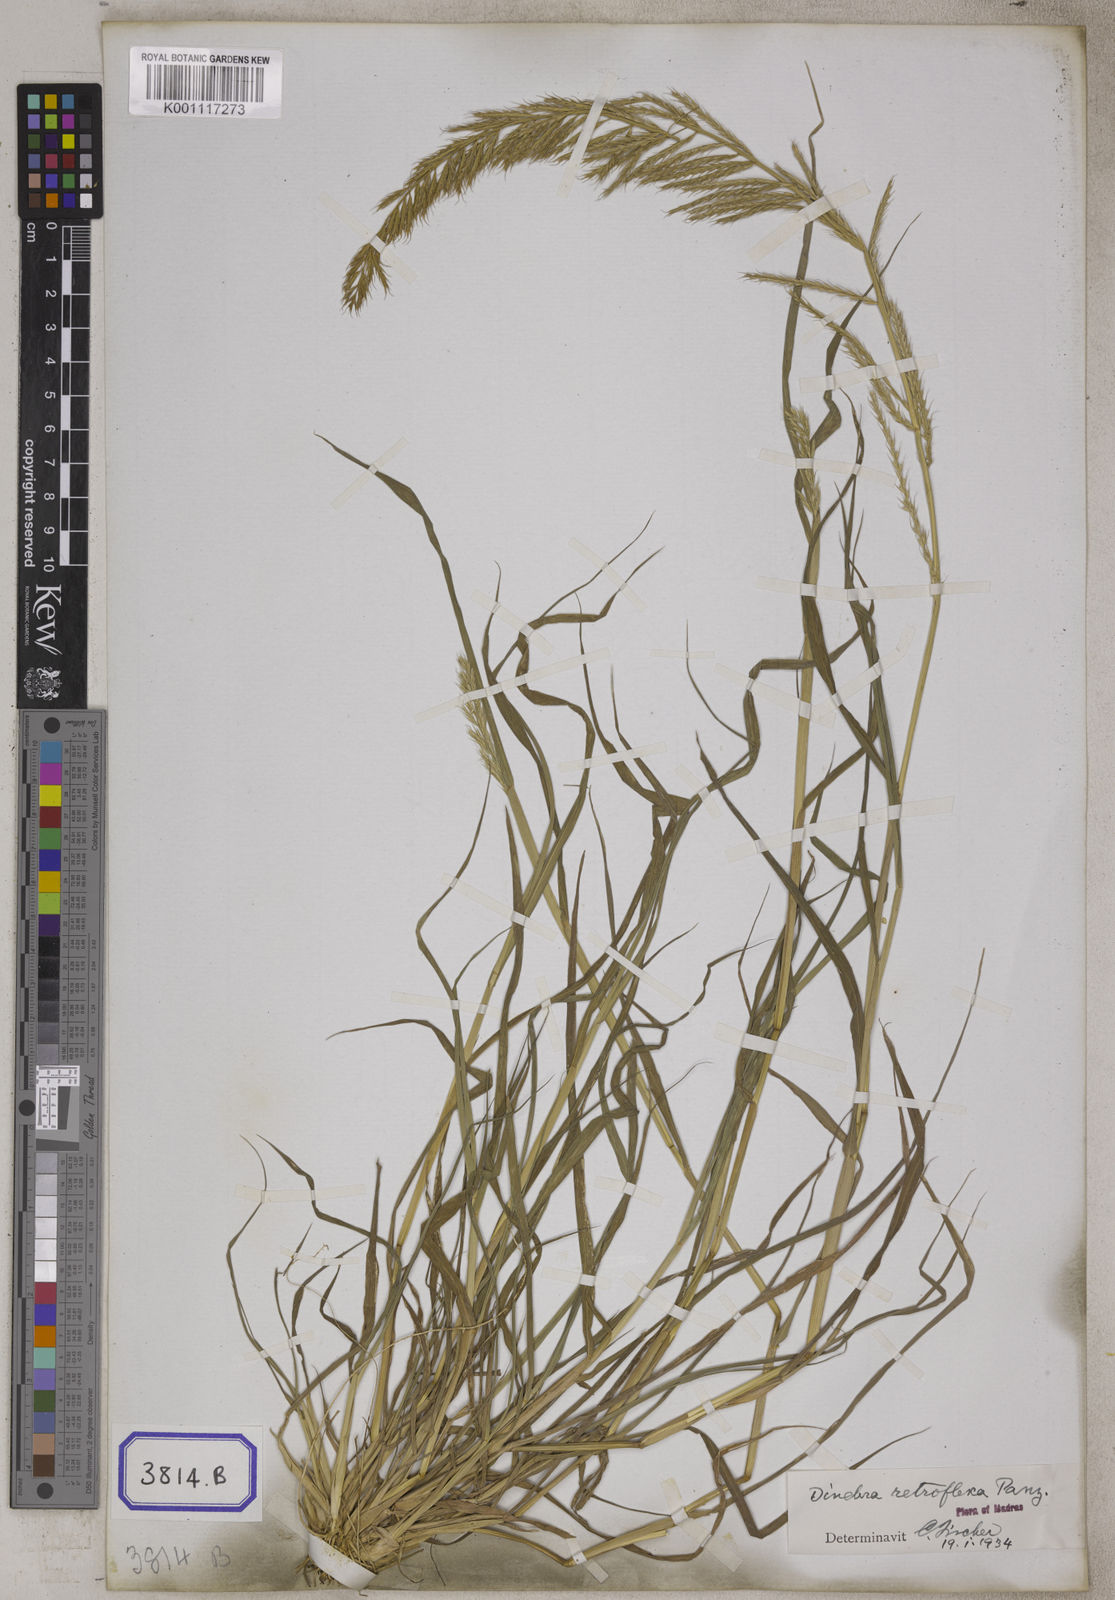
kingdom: Plantae
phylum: Tracheophyta
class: Liliopsida
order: Poales
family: Poaceae
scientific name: Poaceae
